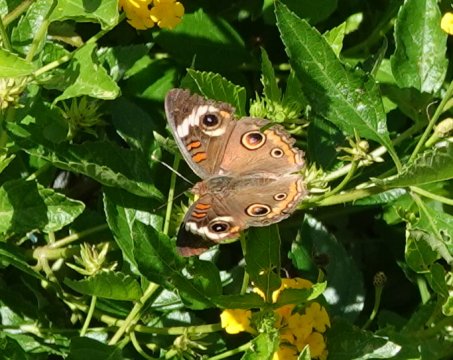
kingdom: Animalia
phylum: Arthropoda
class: Insecta
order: Lepidoptera
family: Nymphalidae
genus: Junonia
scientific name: Junonia coenia
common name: Common Buckeye
